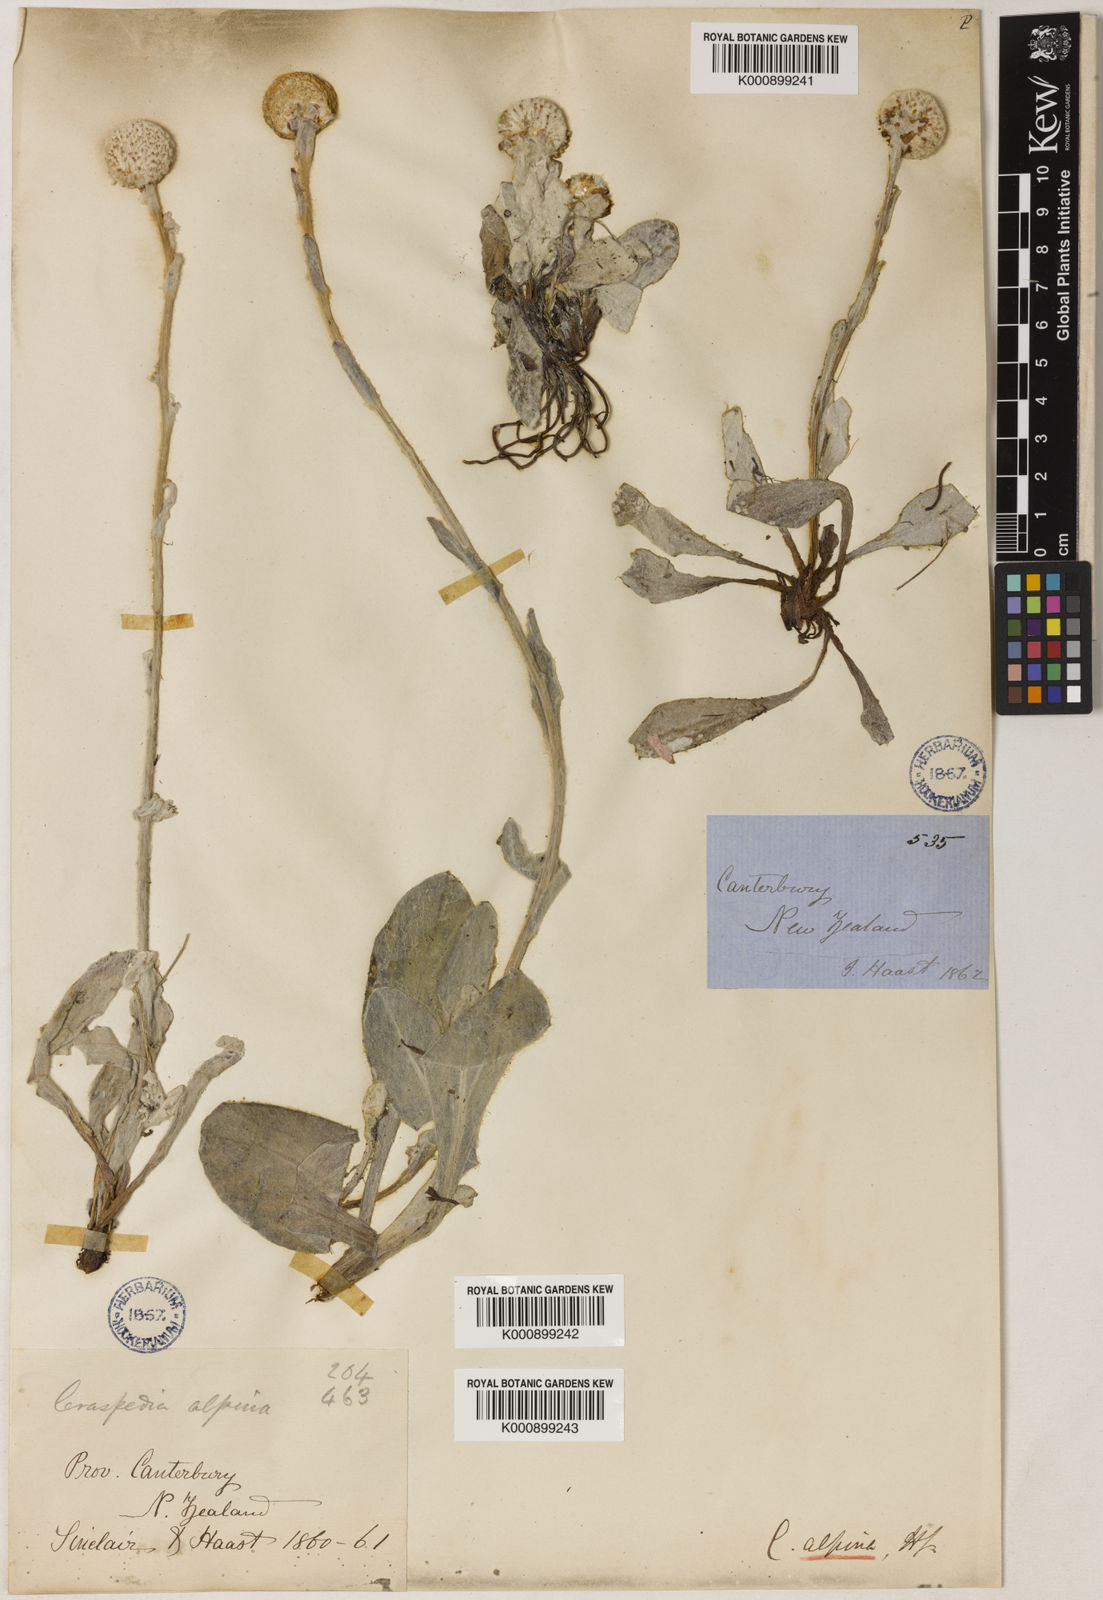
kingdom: Plantae
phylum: Tracheophyta
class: Magnoliopsida
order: Asterales
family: Asteraceae
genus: Craspedia
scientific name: Craspedia uniflora
